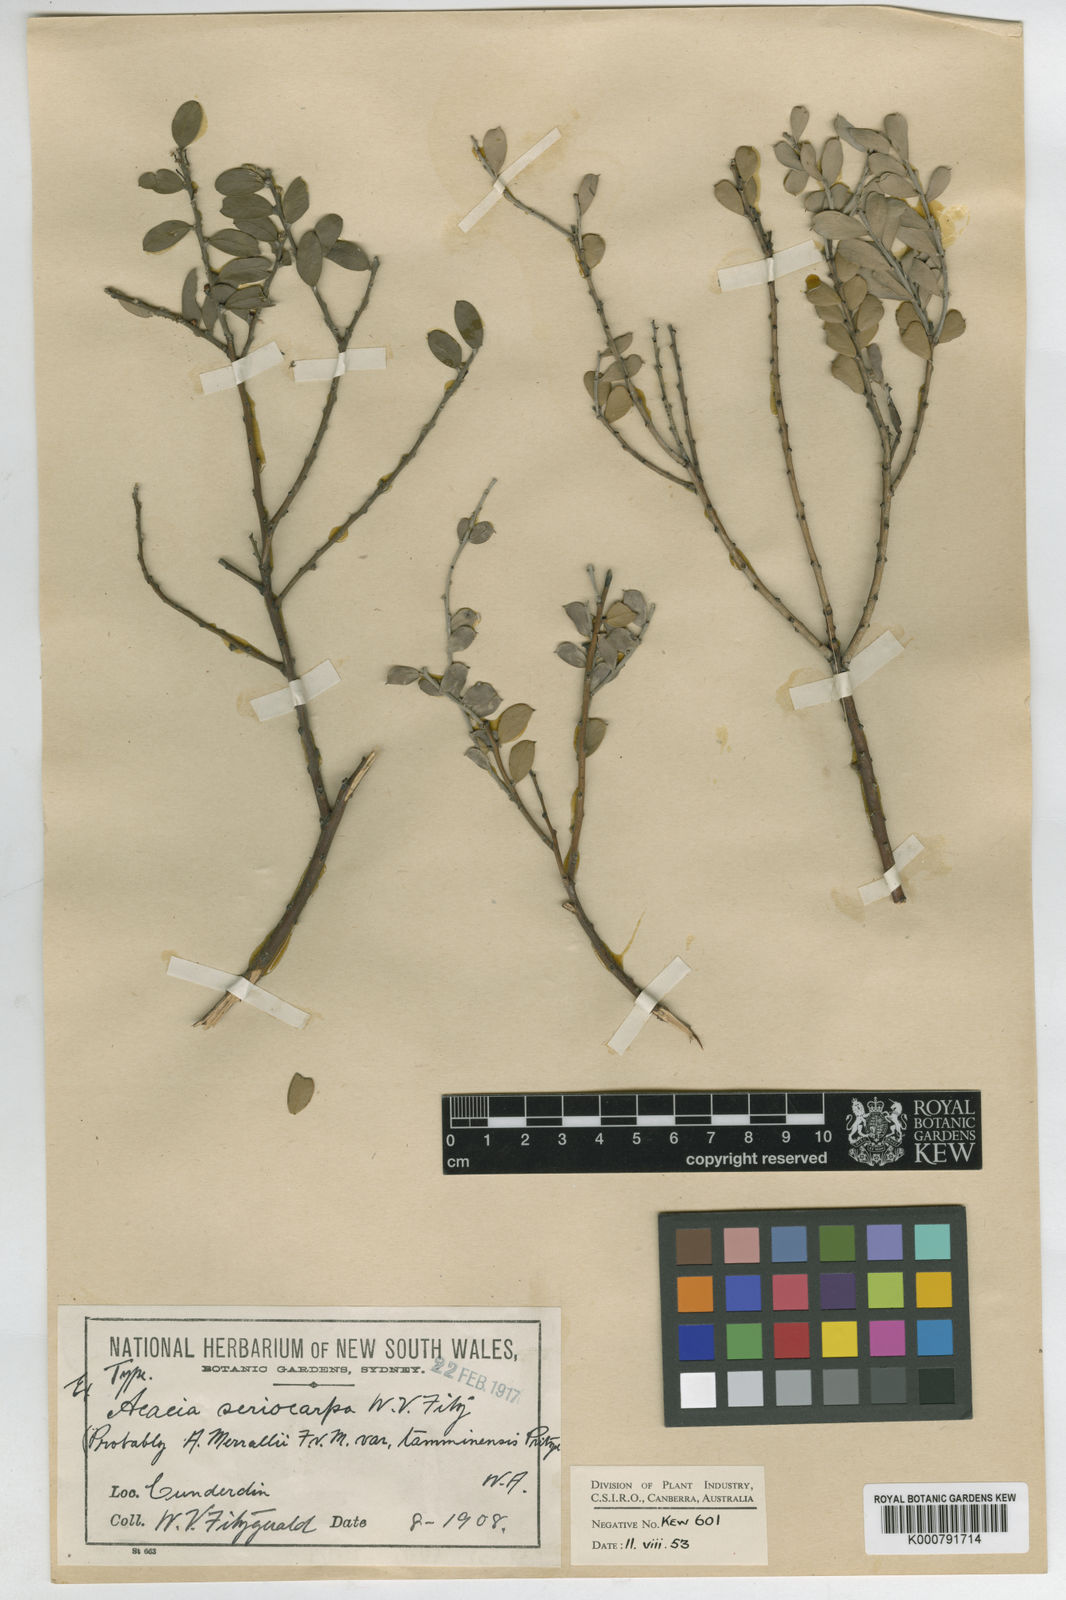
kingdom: Plantae
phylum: Tracheophyta
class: Magnoliopsida
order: Fabales
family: Fabaceae
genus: Acacia
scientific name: Acacia merrallii
